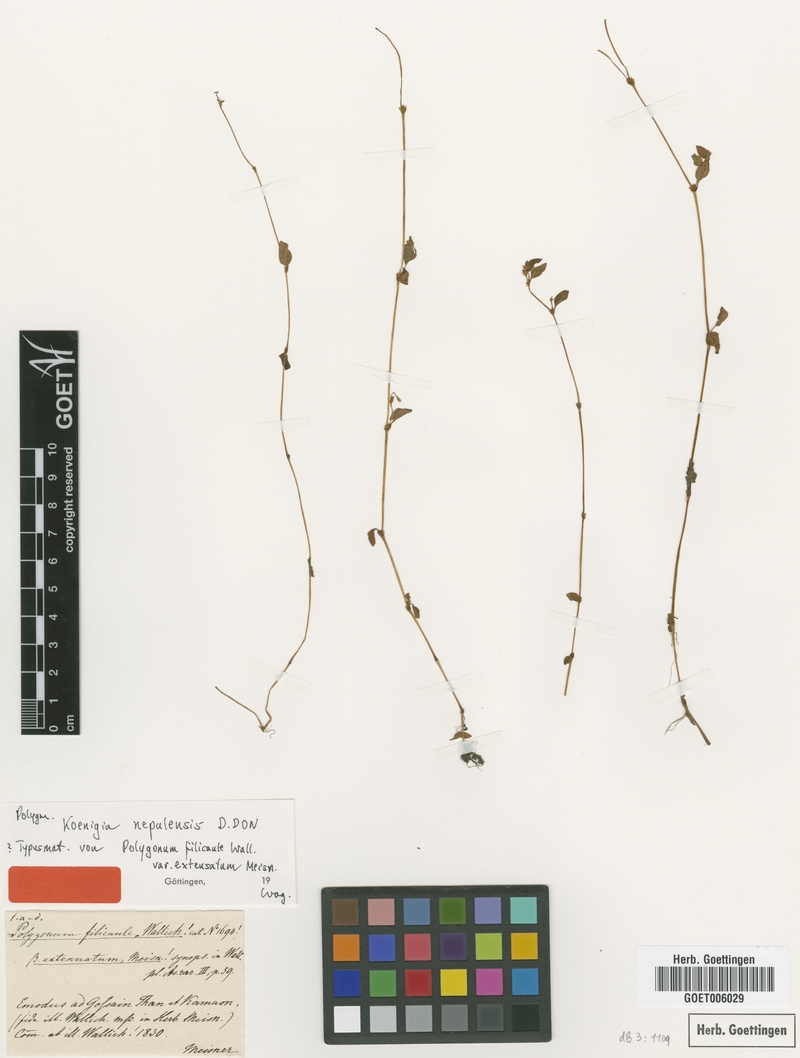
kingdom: Plantae
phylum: Tracheophyta
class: Magnoliopsida
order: Caryophyllales
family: Polygonaceae
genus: Koenigia
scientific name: Koenigia nepalensis
